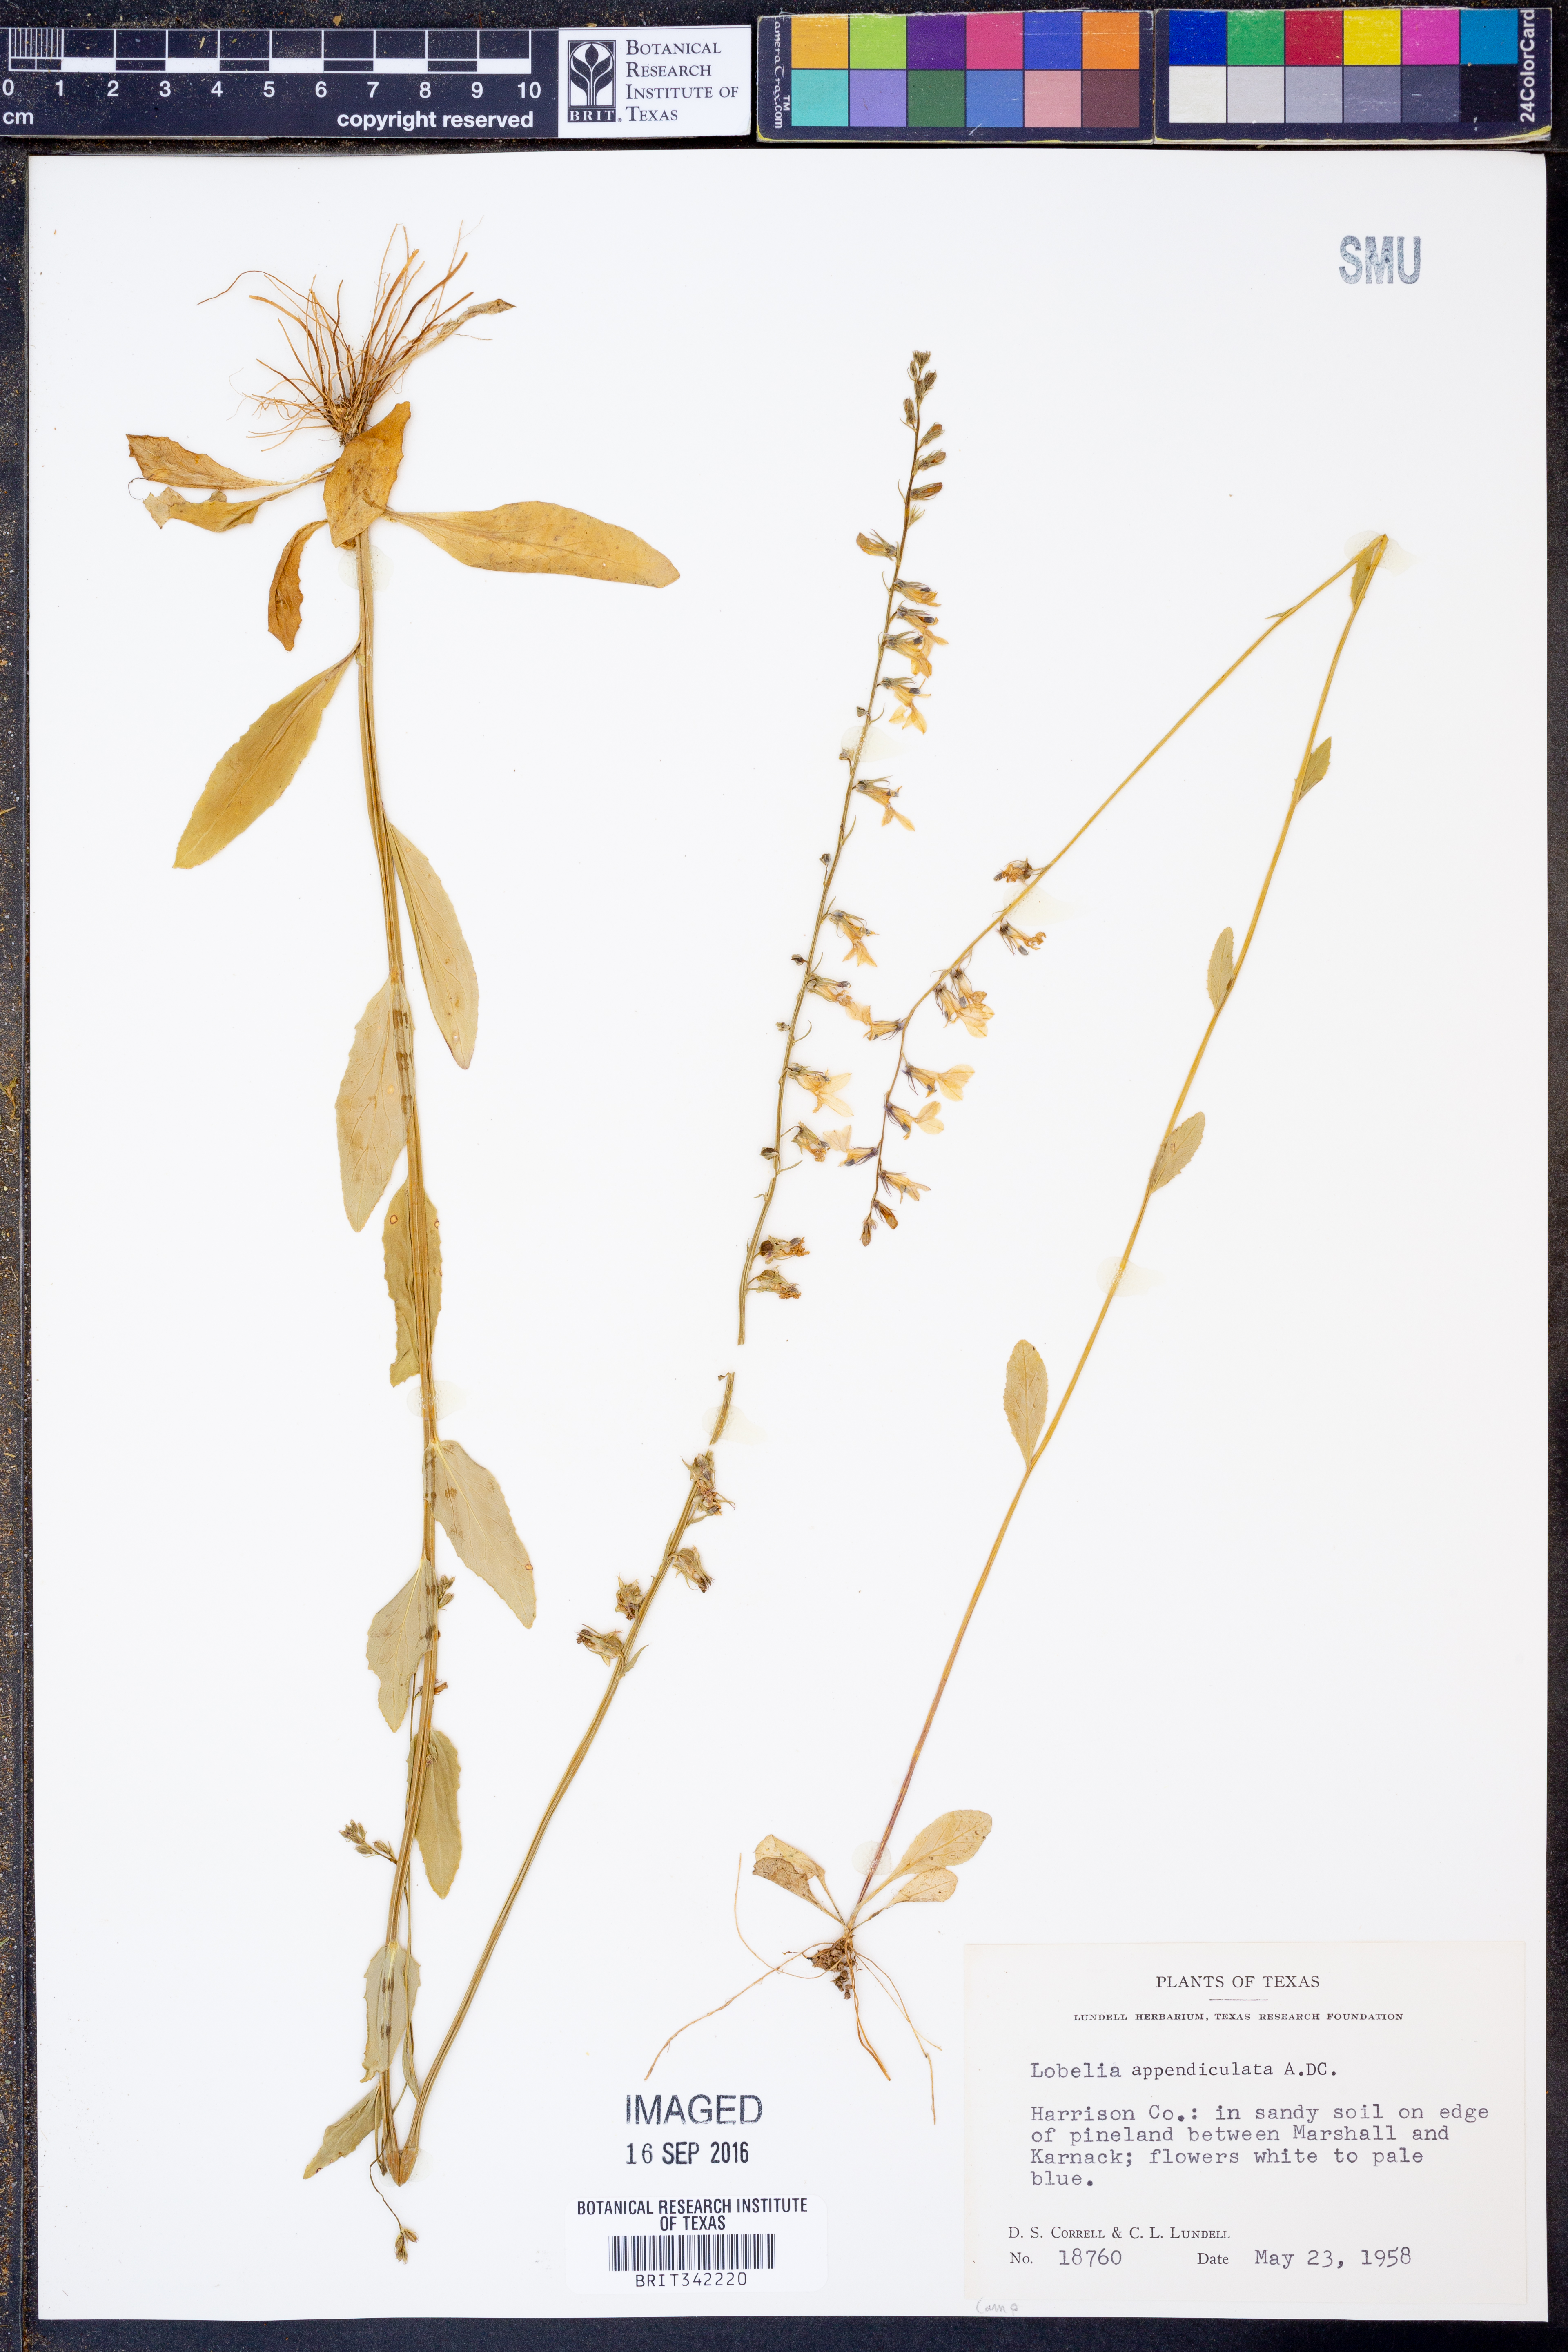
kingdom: Plantae
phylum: Tracheophyta
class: Magnoliopsida
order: Asterales
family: Campanulaceae
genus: Lobelia
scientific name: Lobelia appendiculata
